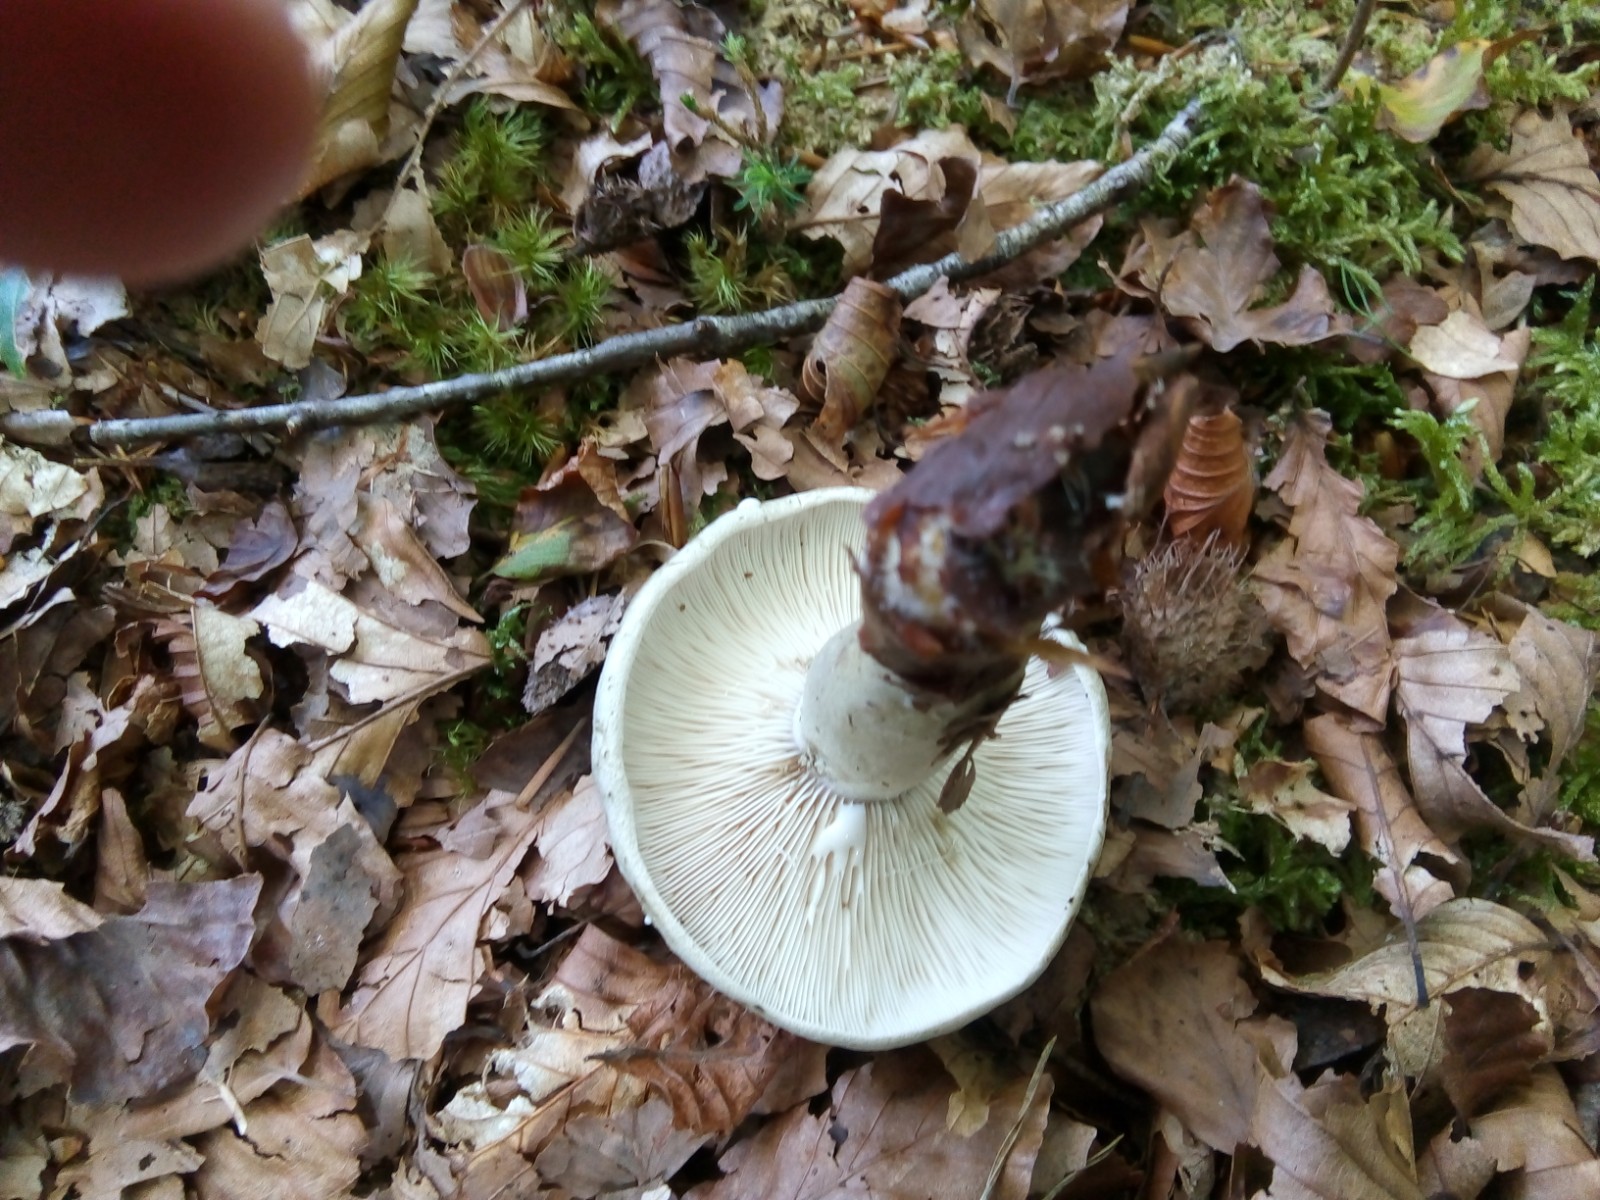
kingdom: Fungi
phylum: Basidiomycota
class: Agaricomycetes
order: Russulales
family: Russulaceae
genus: Lactarius
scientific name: Lactarius blennius
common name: dråbeplettet mælkehat
